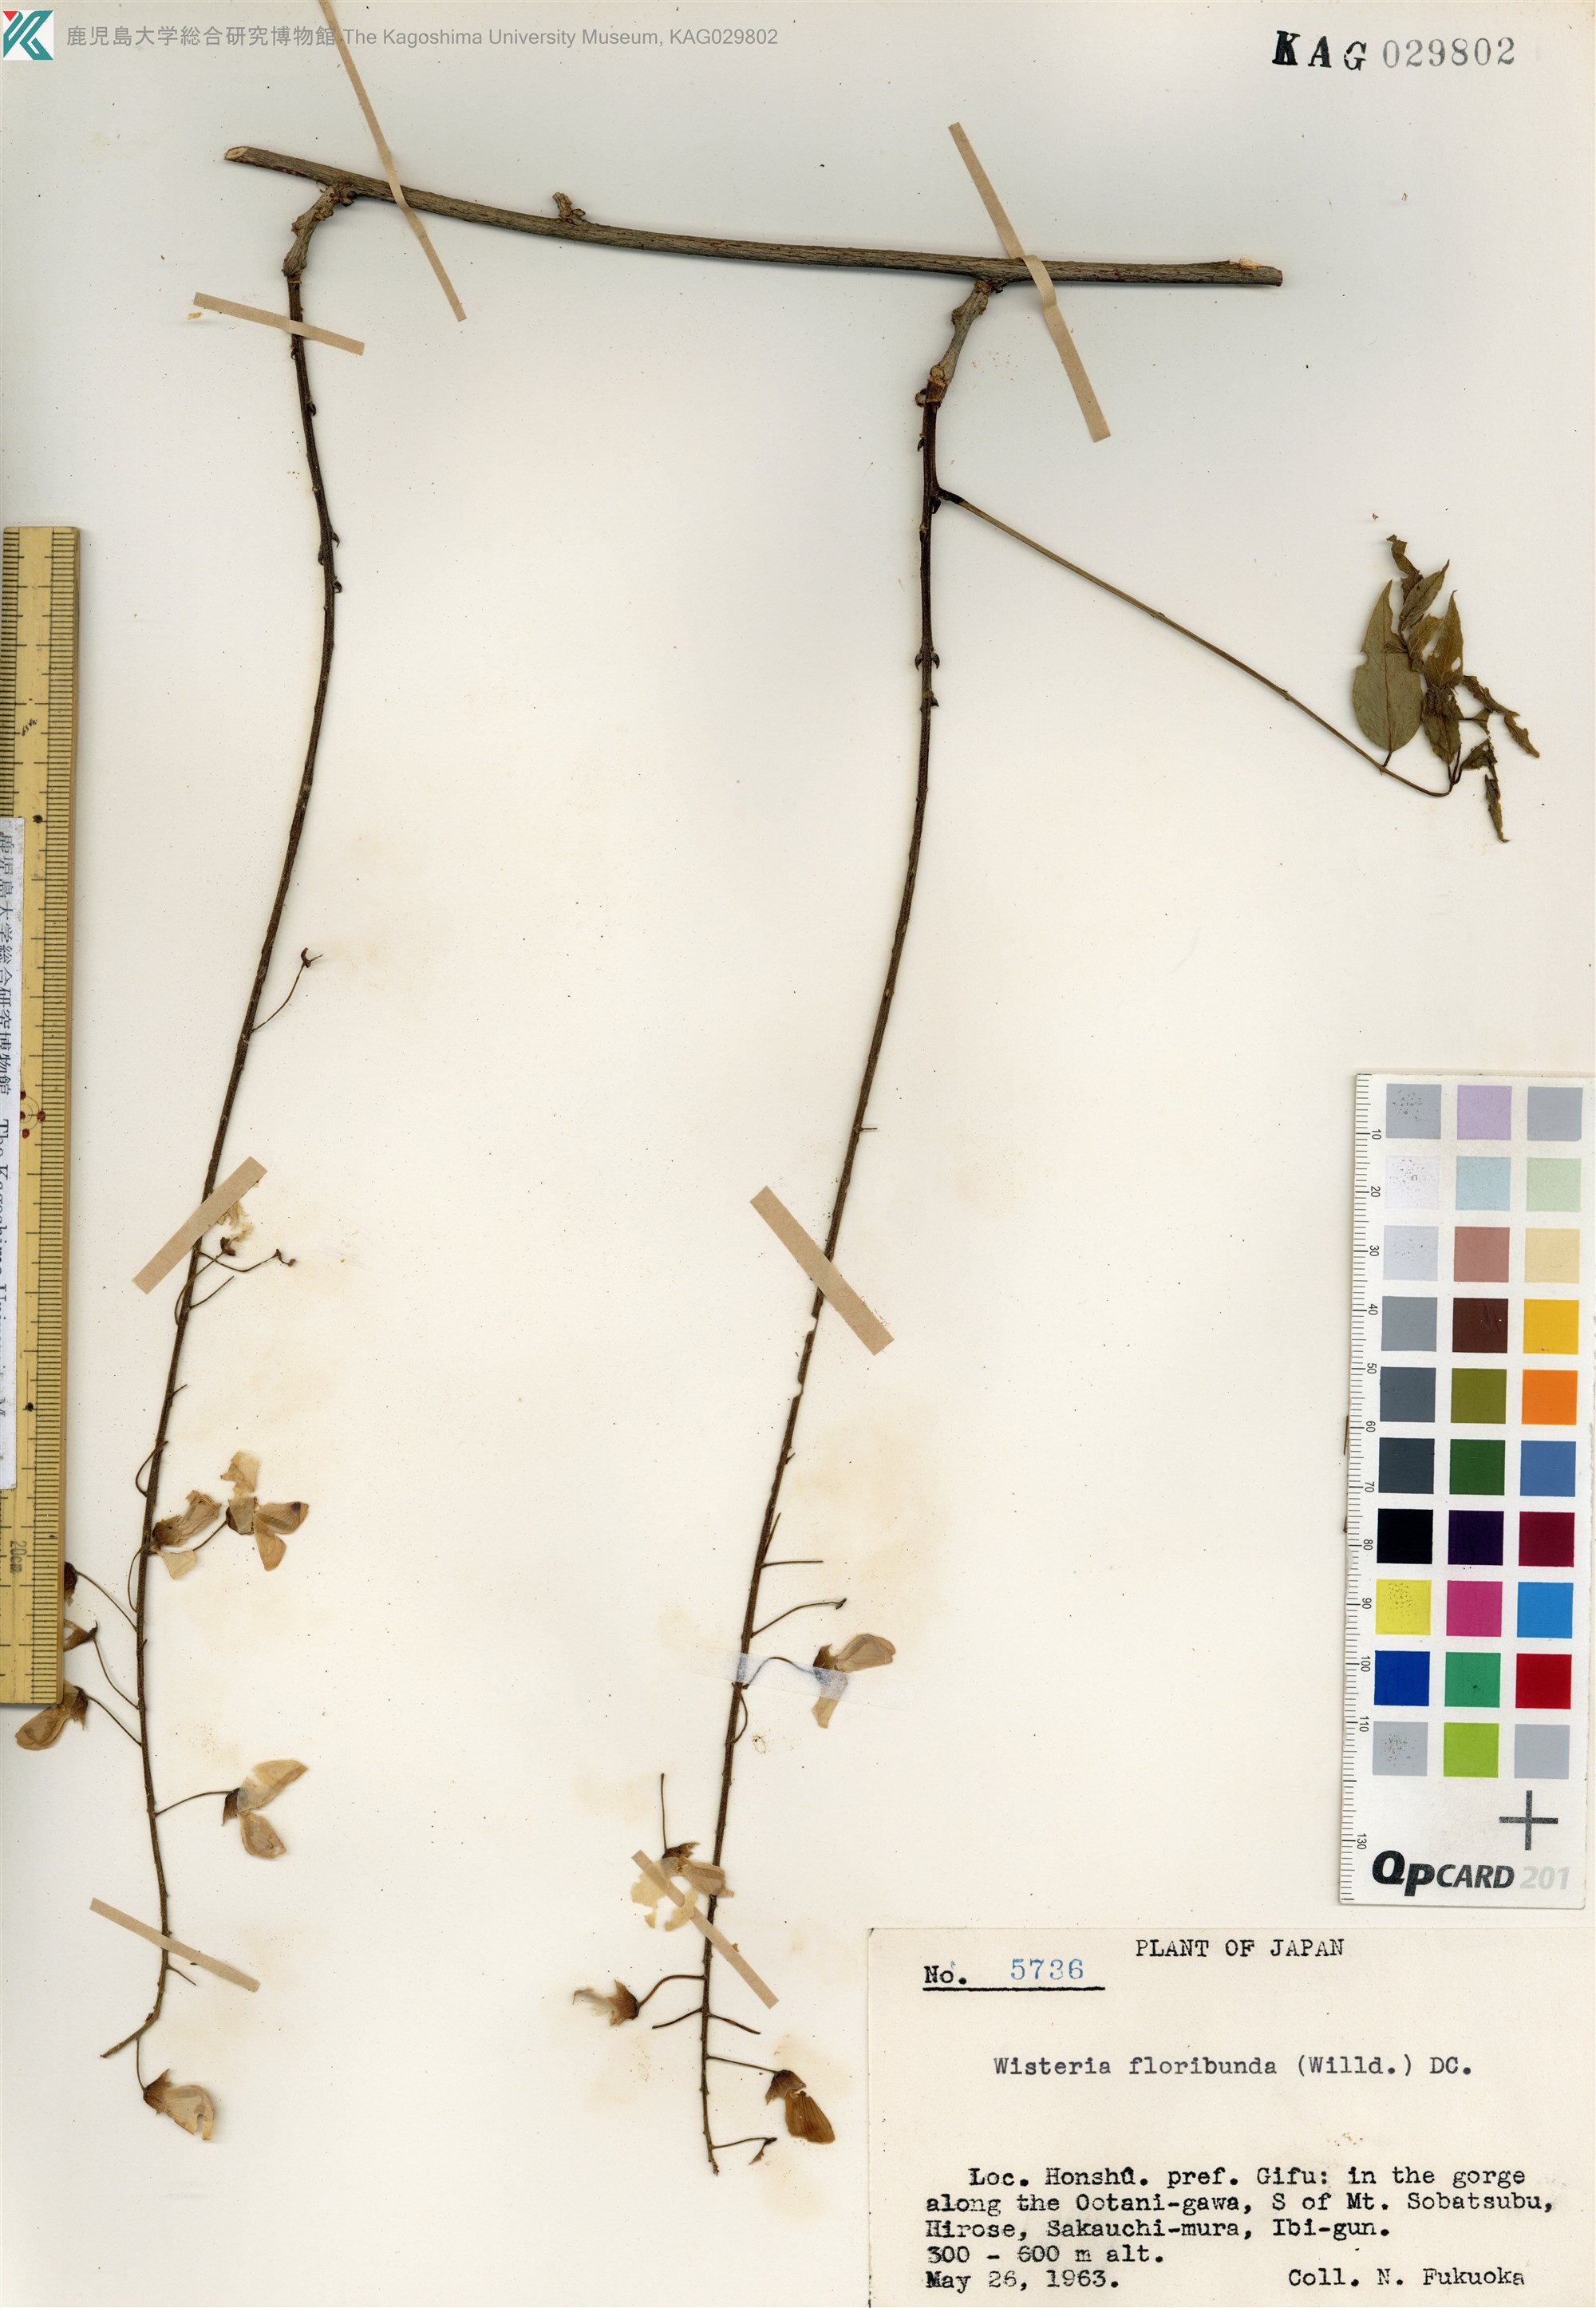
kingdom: Plantae
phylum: Tracheophyta
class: Magnoliopsida
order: Fabales
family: Fabaceae
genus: Wisteria
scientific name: Wisteria floribunda
